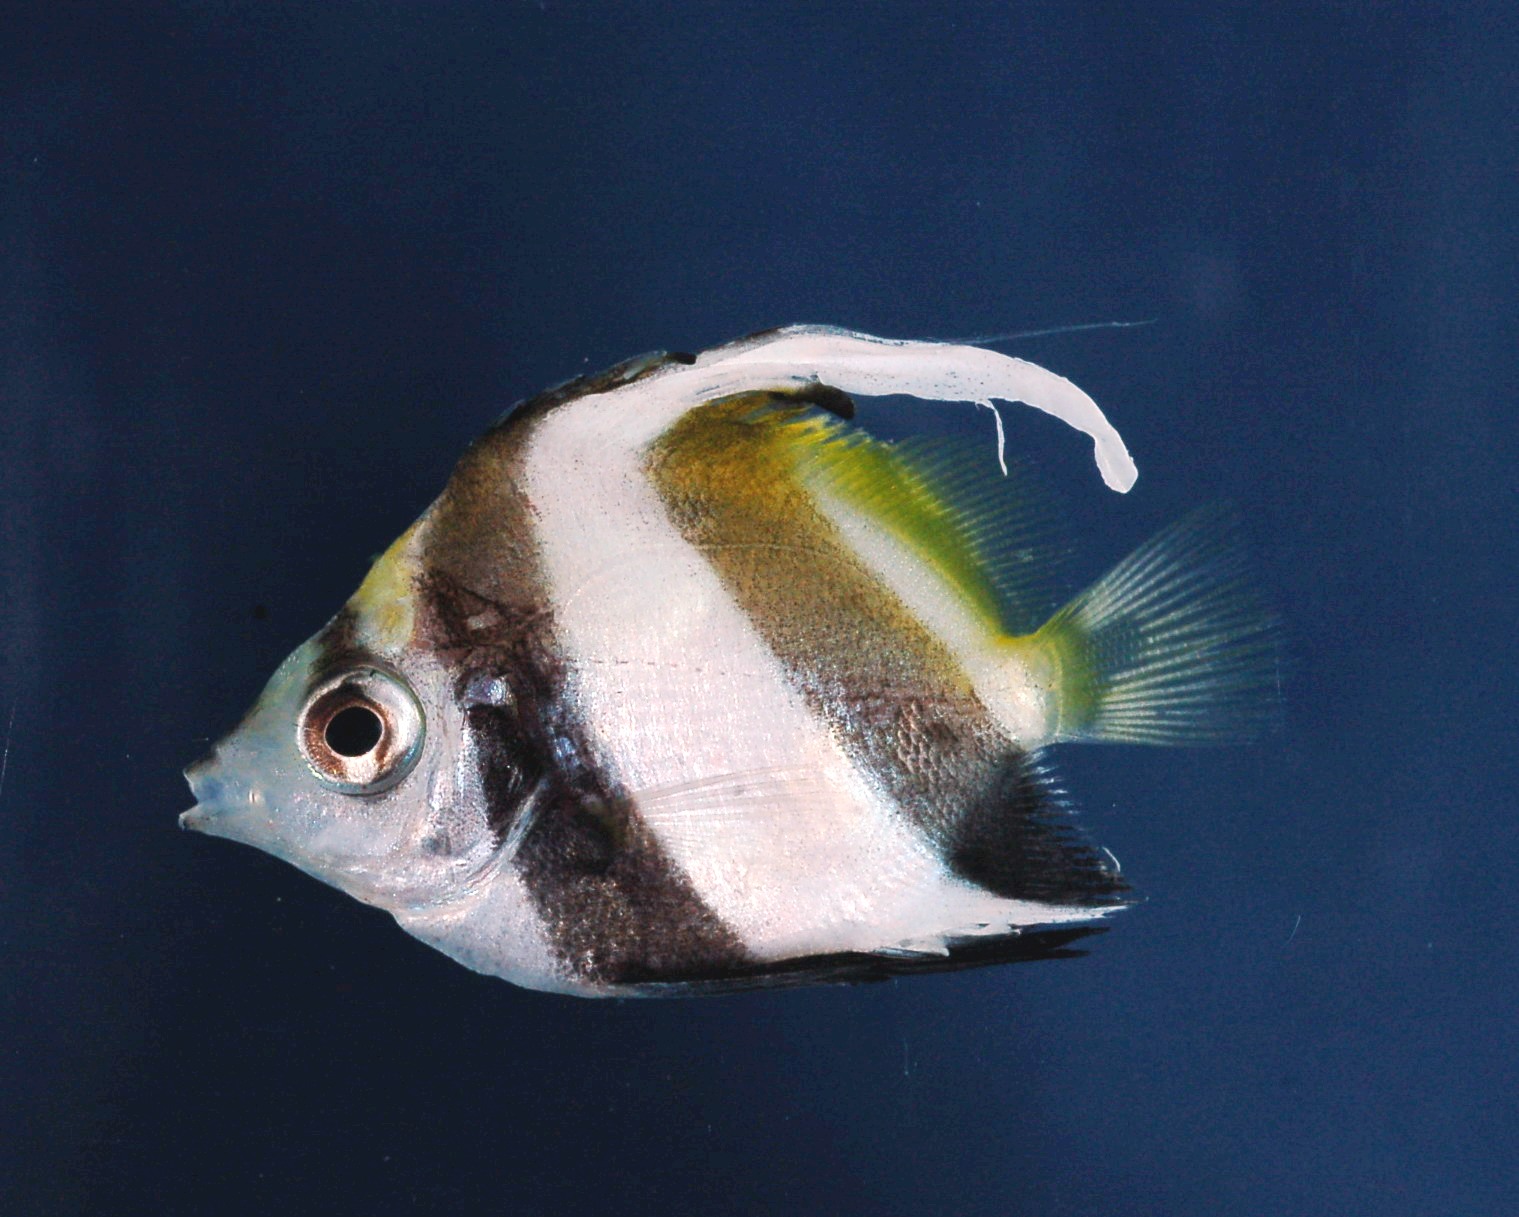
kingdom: Animalia
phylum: Chordata
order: Perciformes
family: Chaetodontidae
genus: Heniochus
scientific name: Heniochus acuminatus
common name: Pennant coralfish
